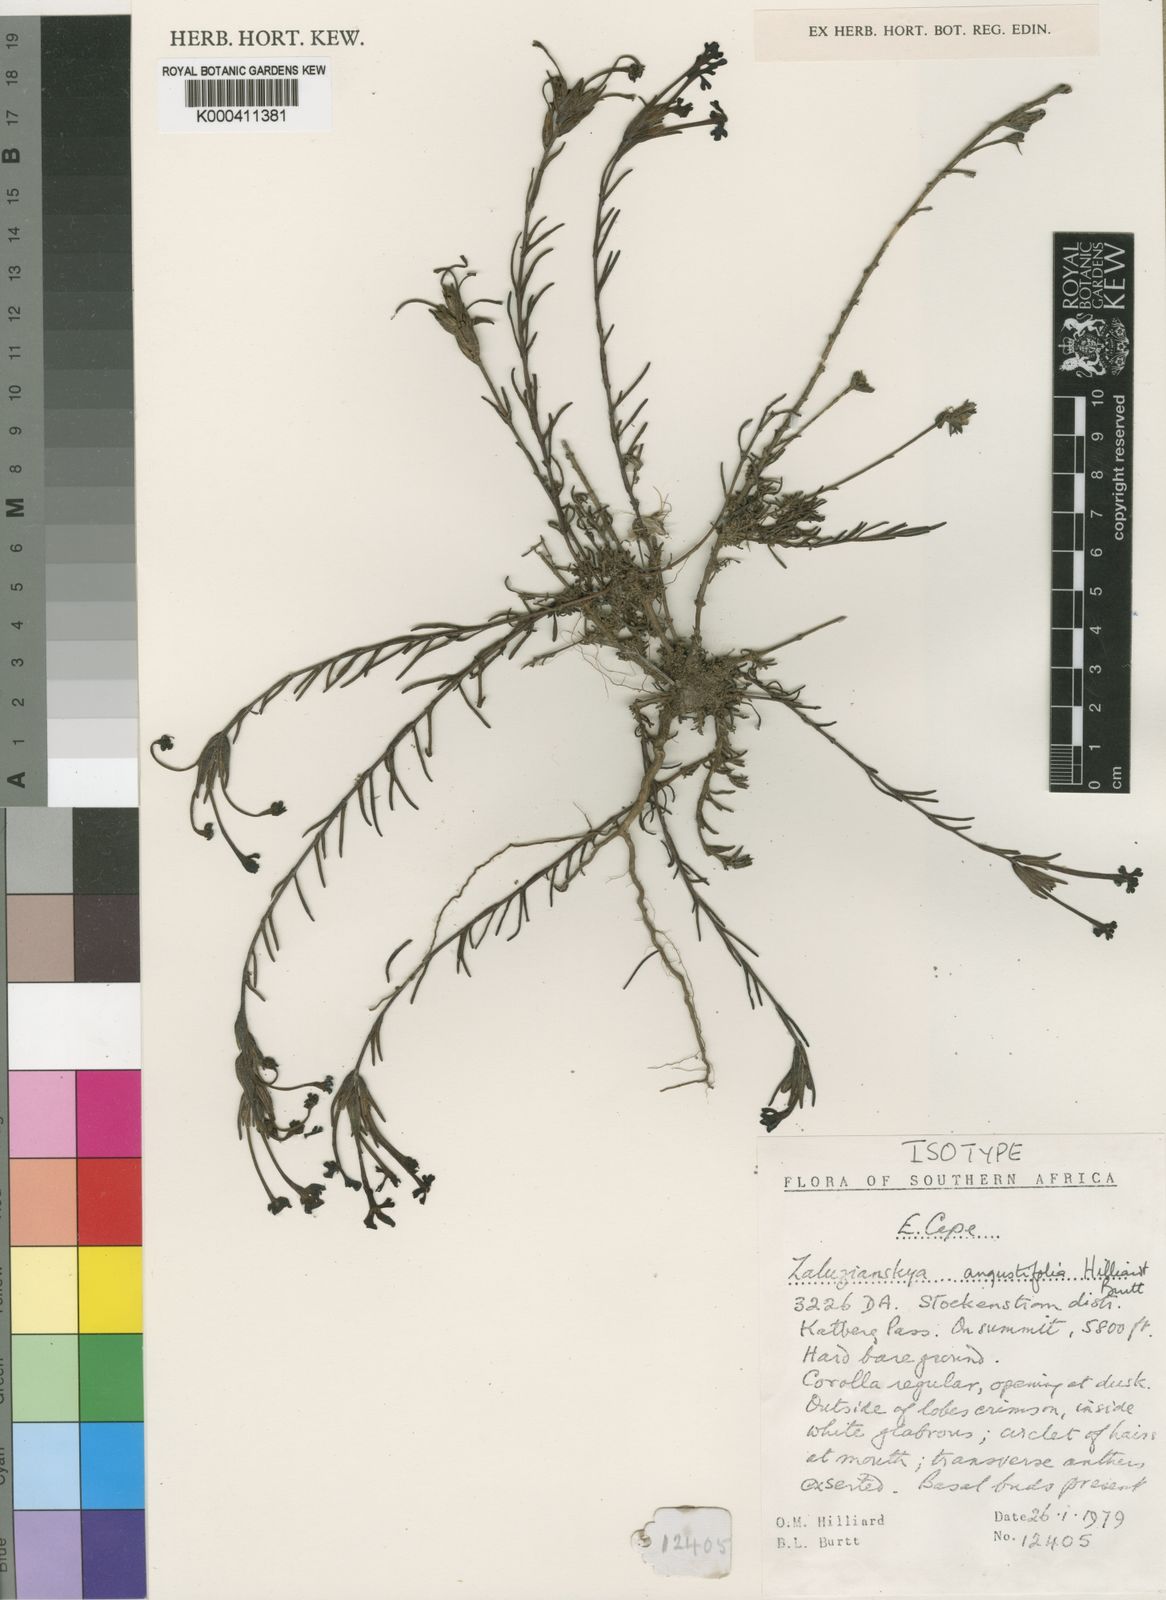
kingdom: Plantae
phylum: Tracheophyta
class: Magnoliopsida
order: Lamiales
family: Scrophulariaceae
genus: Zaluzianskya
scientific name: Zaluzianskya angustifolia
